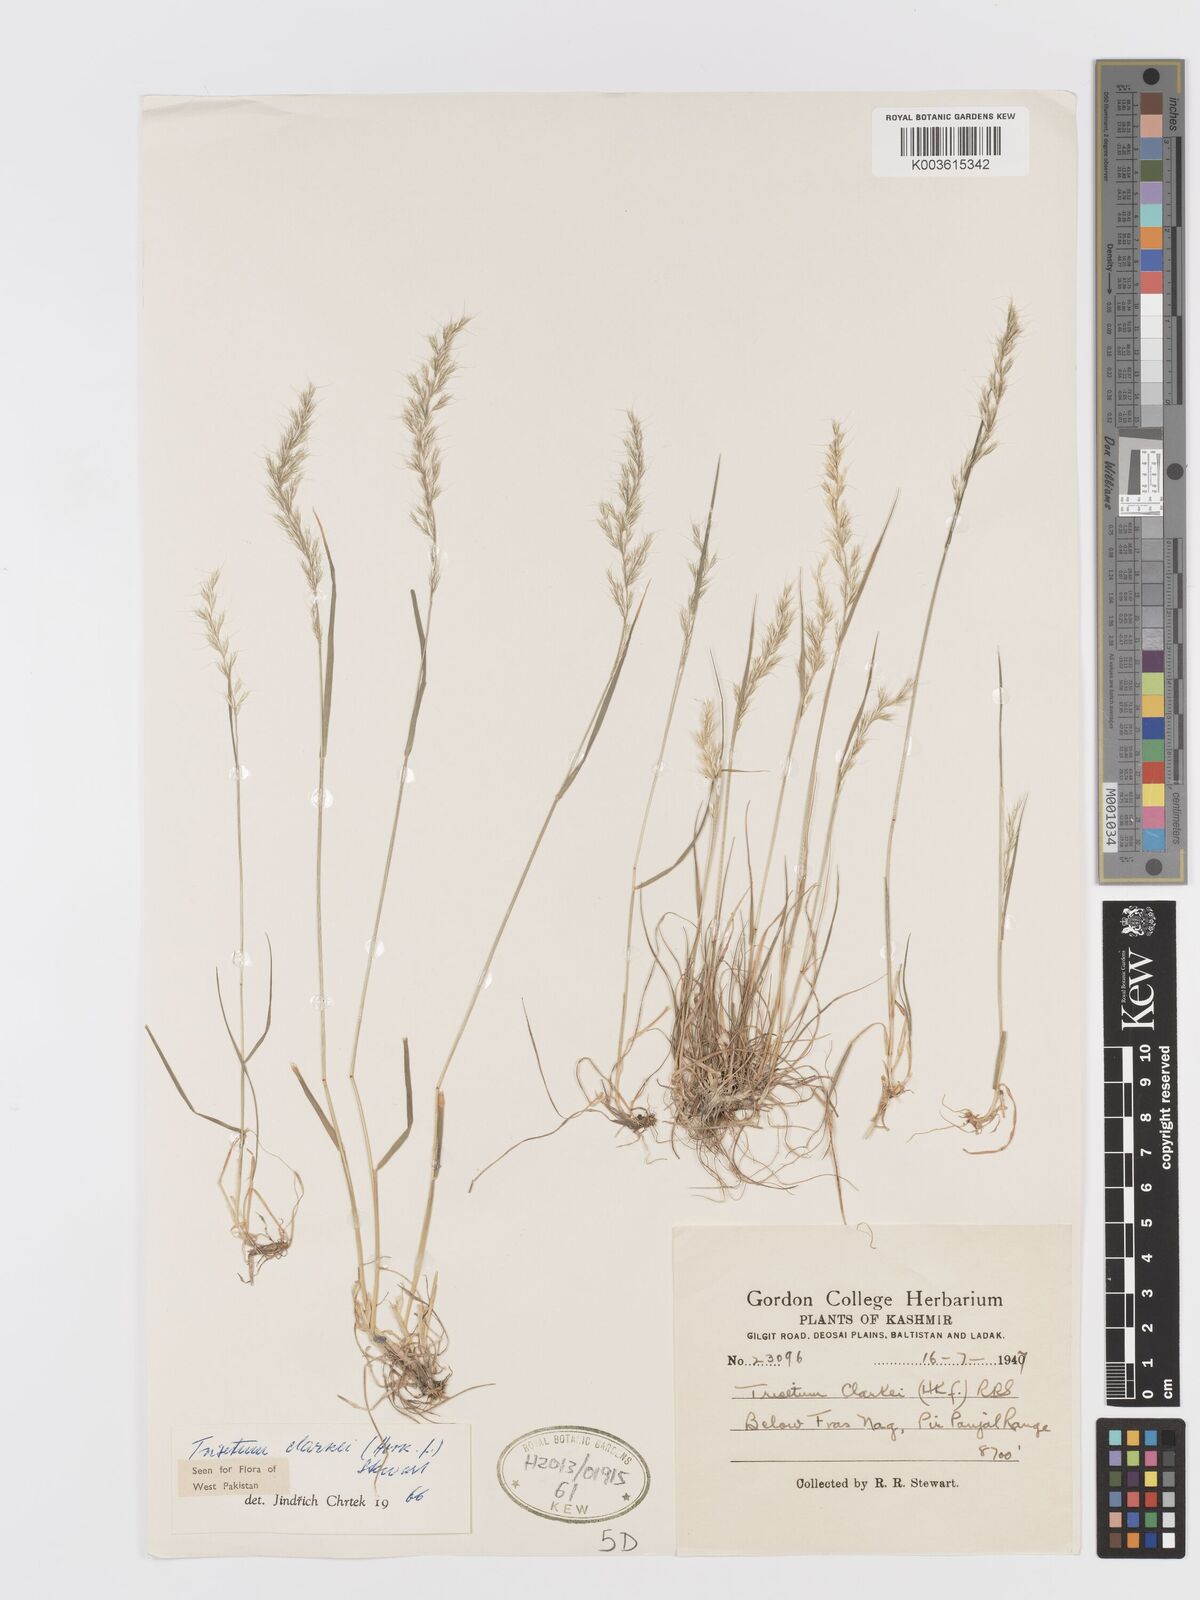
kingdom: Plantae
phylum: Tracheophyta
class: Liliopsida
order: Poales
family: Poaceae
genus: Trisetum
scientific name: Trisetum clarkei
